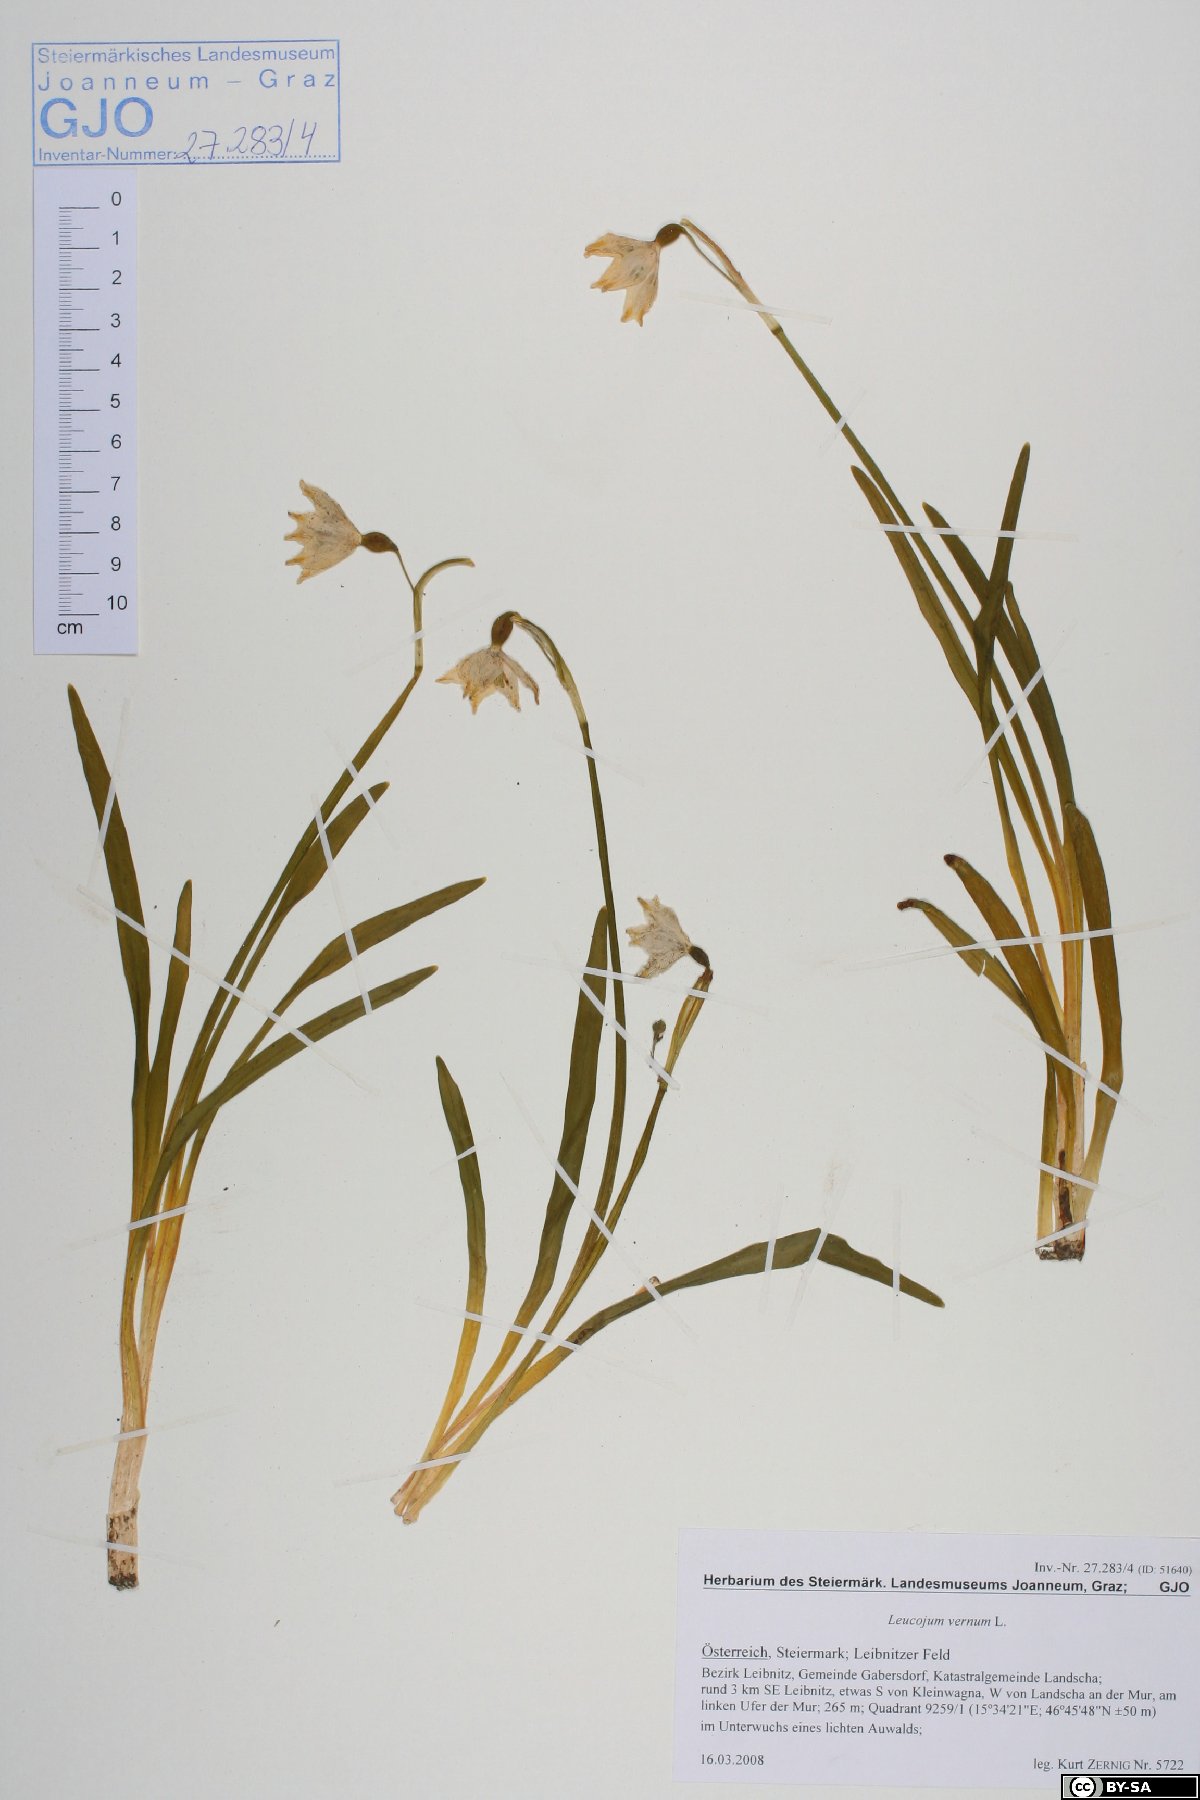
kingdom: Plantae
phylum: Tracheophyta
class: Liliopsida
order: Asparagales
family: Amaryllidaceae
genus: Leucojum
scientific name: Leucojum vernum
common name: Spring snowflake
